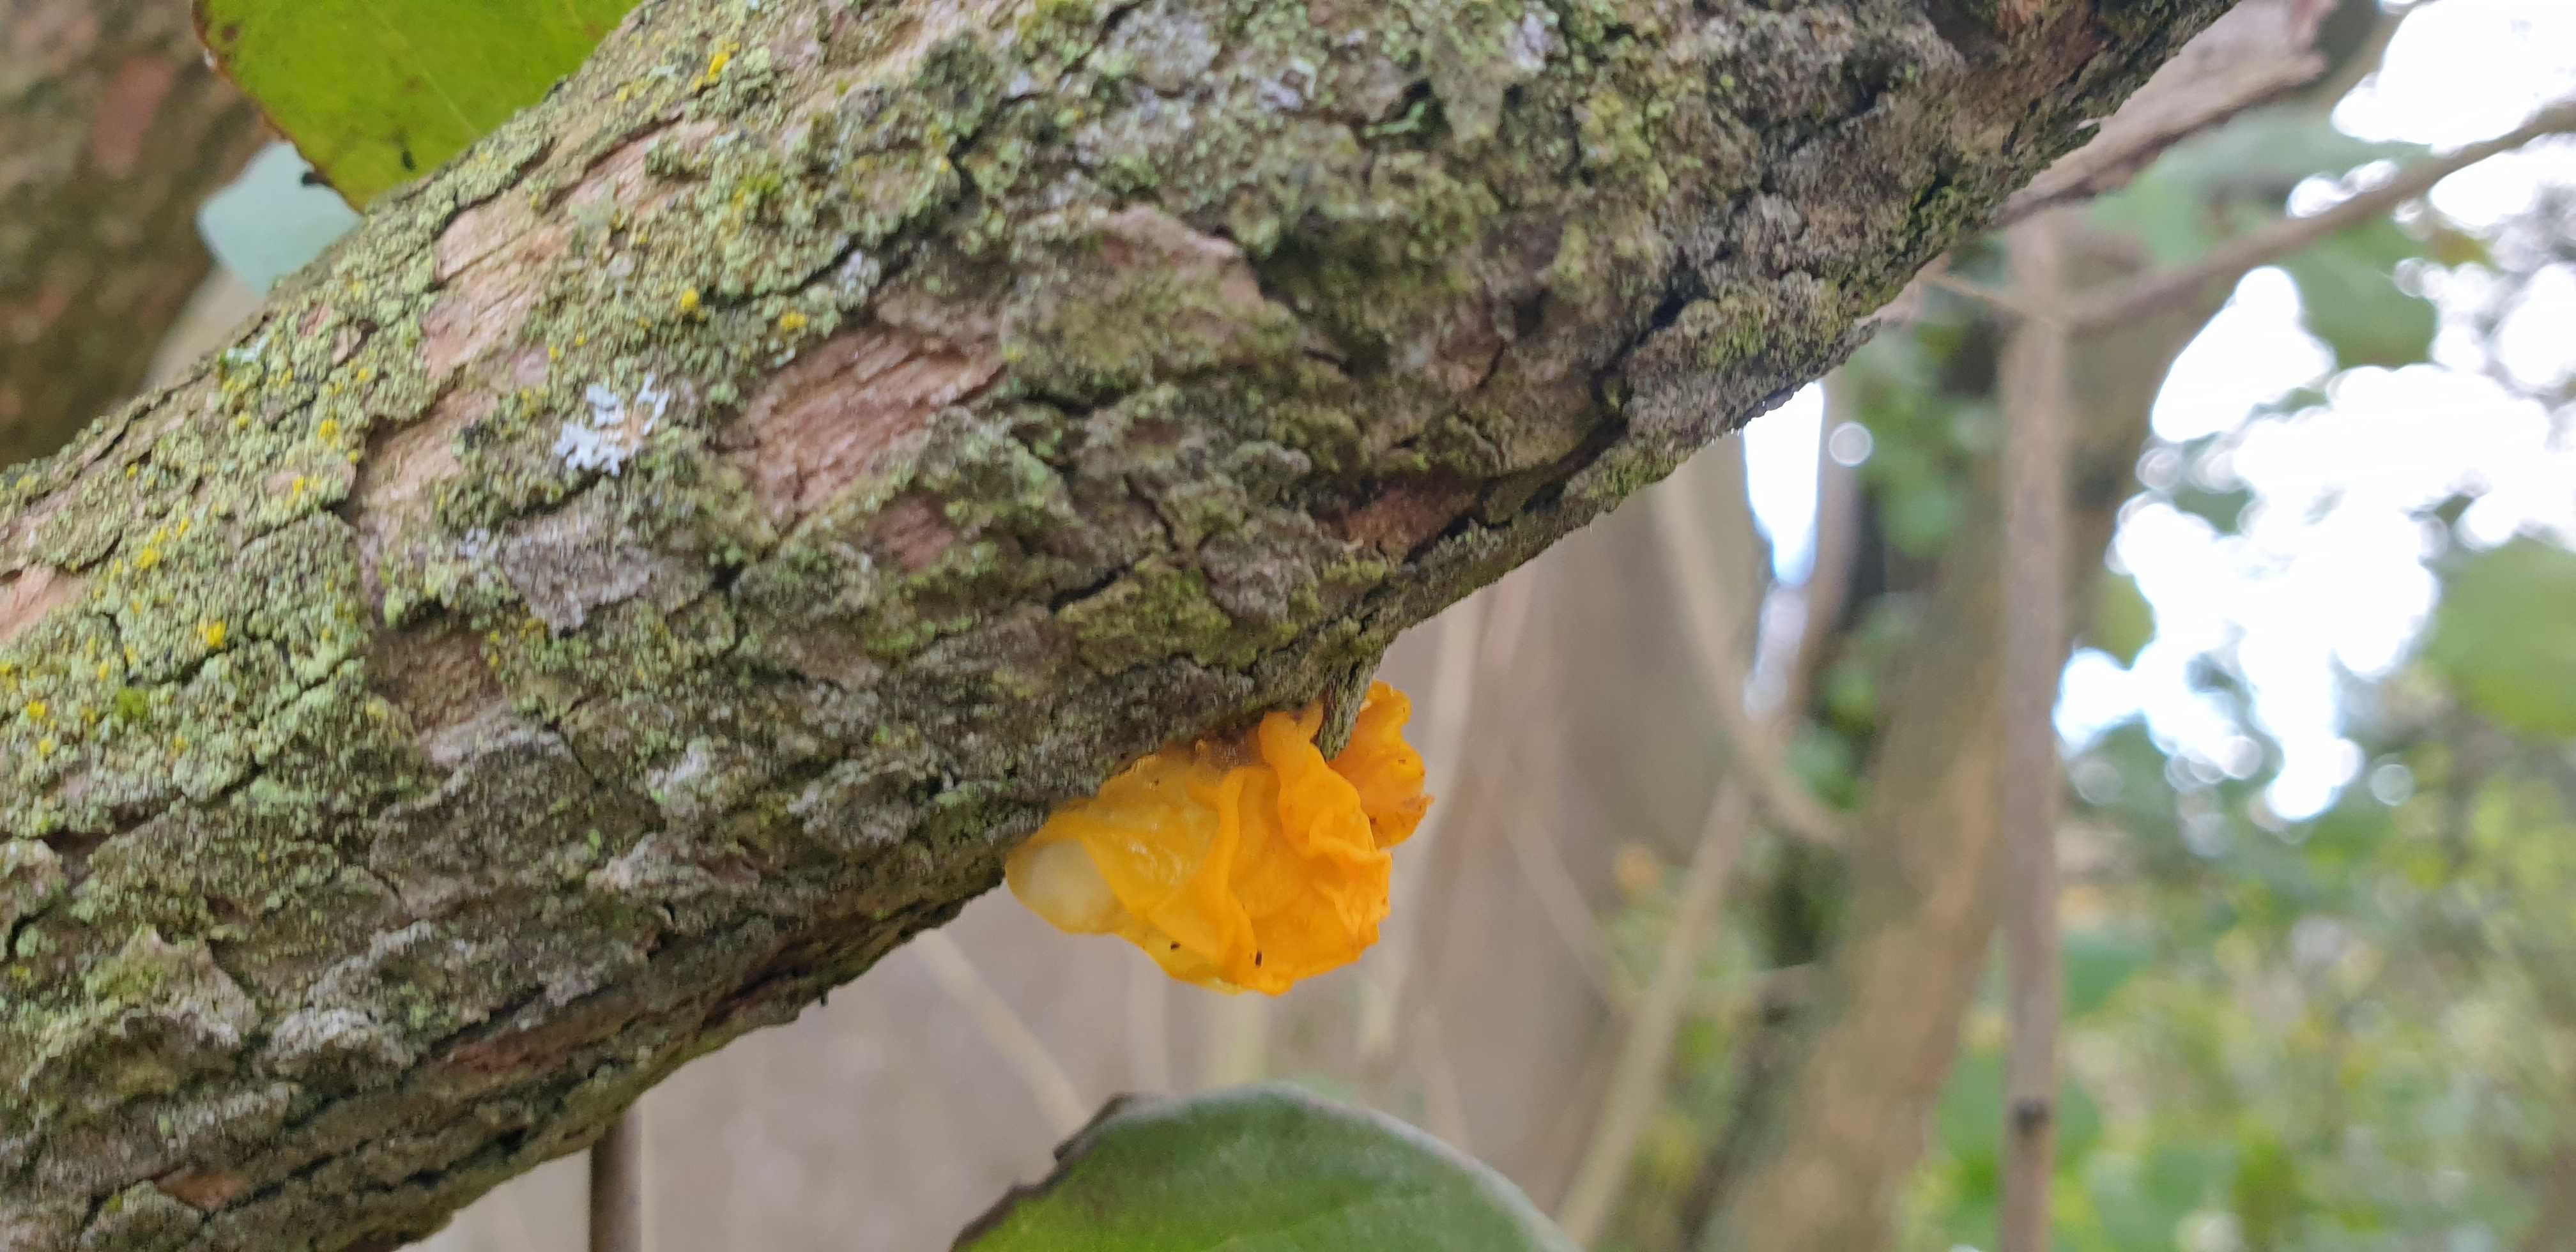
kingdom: Fungi
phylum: Basidiomycota
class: Tremellomycetes
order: Tremellales
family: Tremellaceae
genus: Tremella
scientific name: Tremella mesenterica
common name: gul bævresvamp
